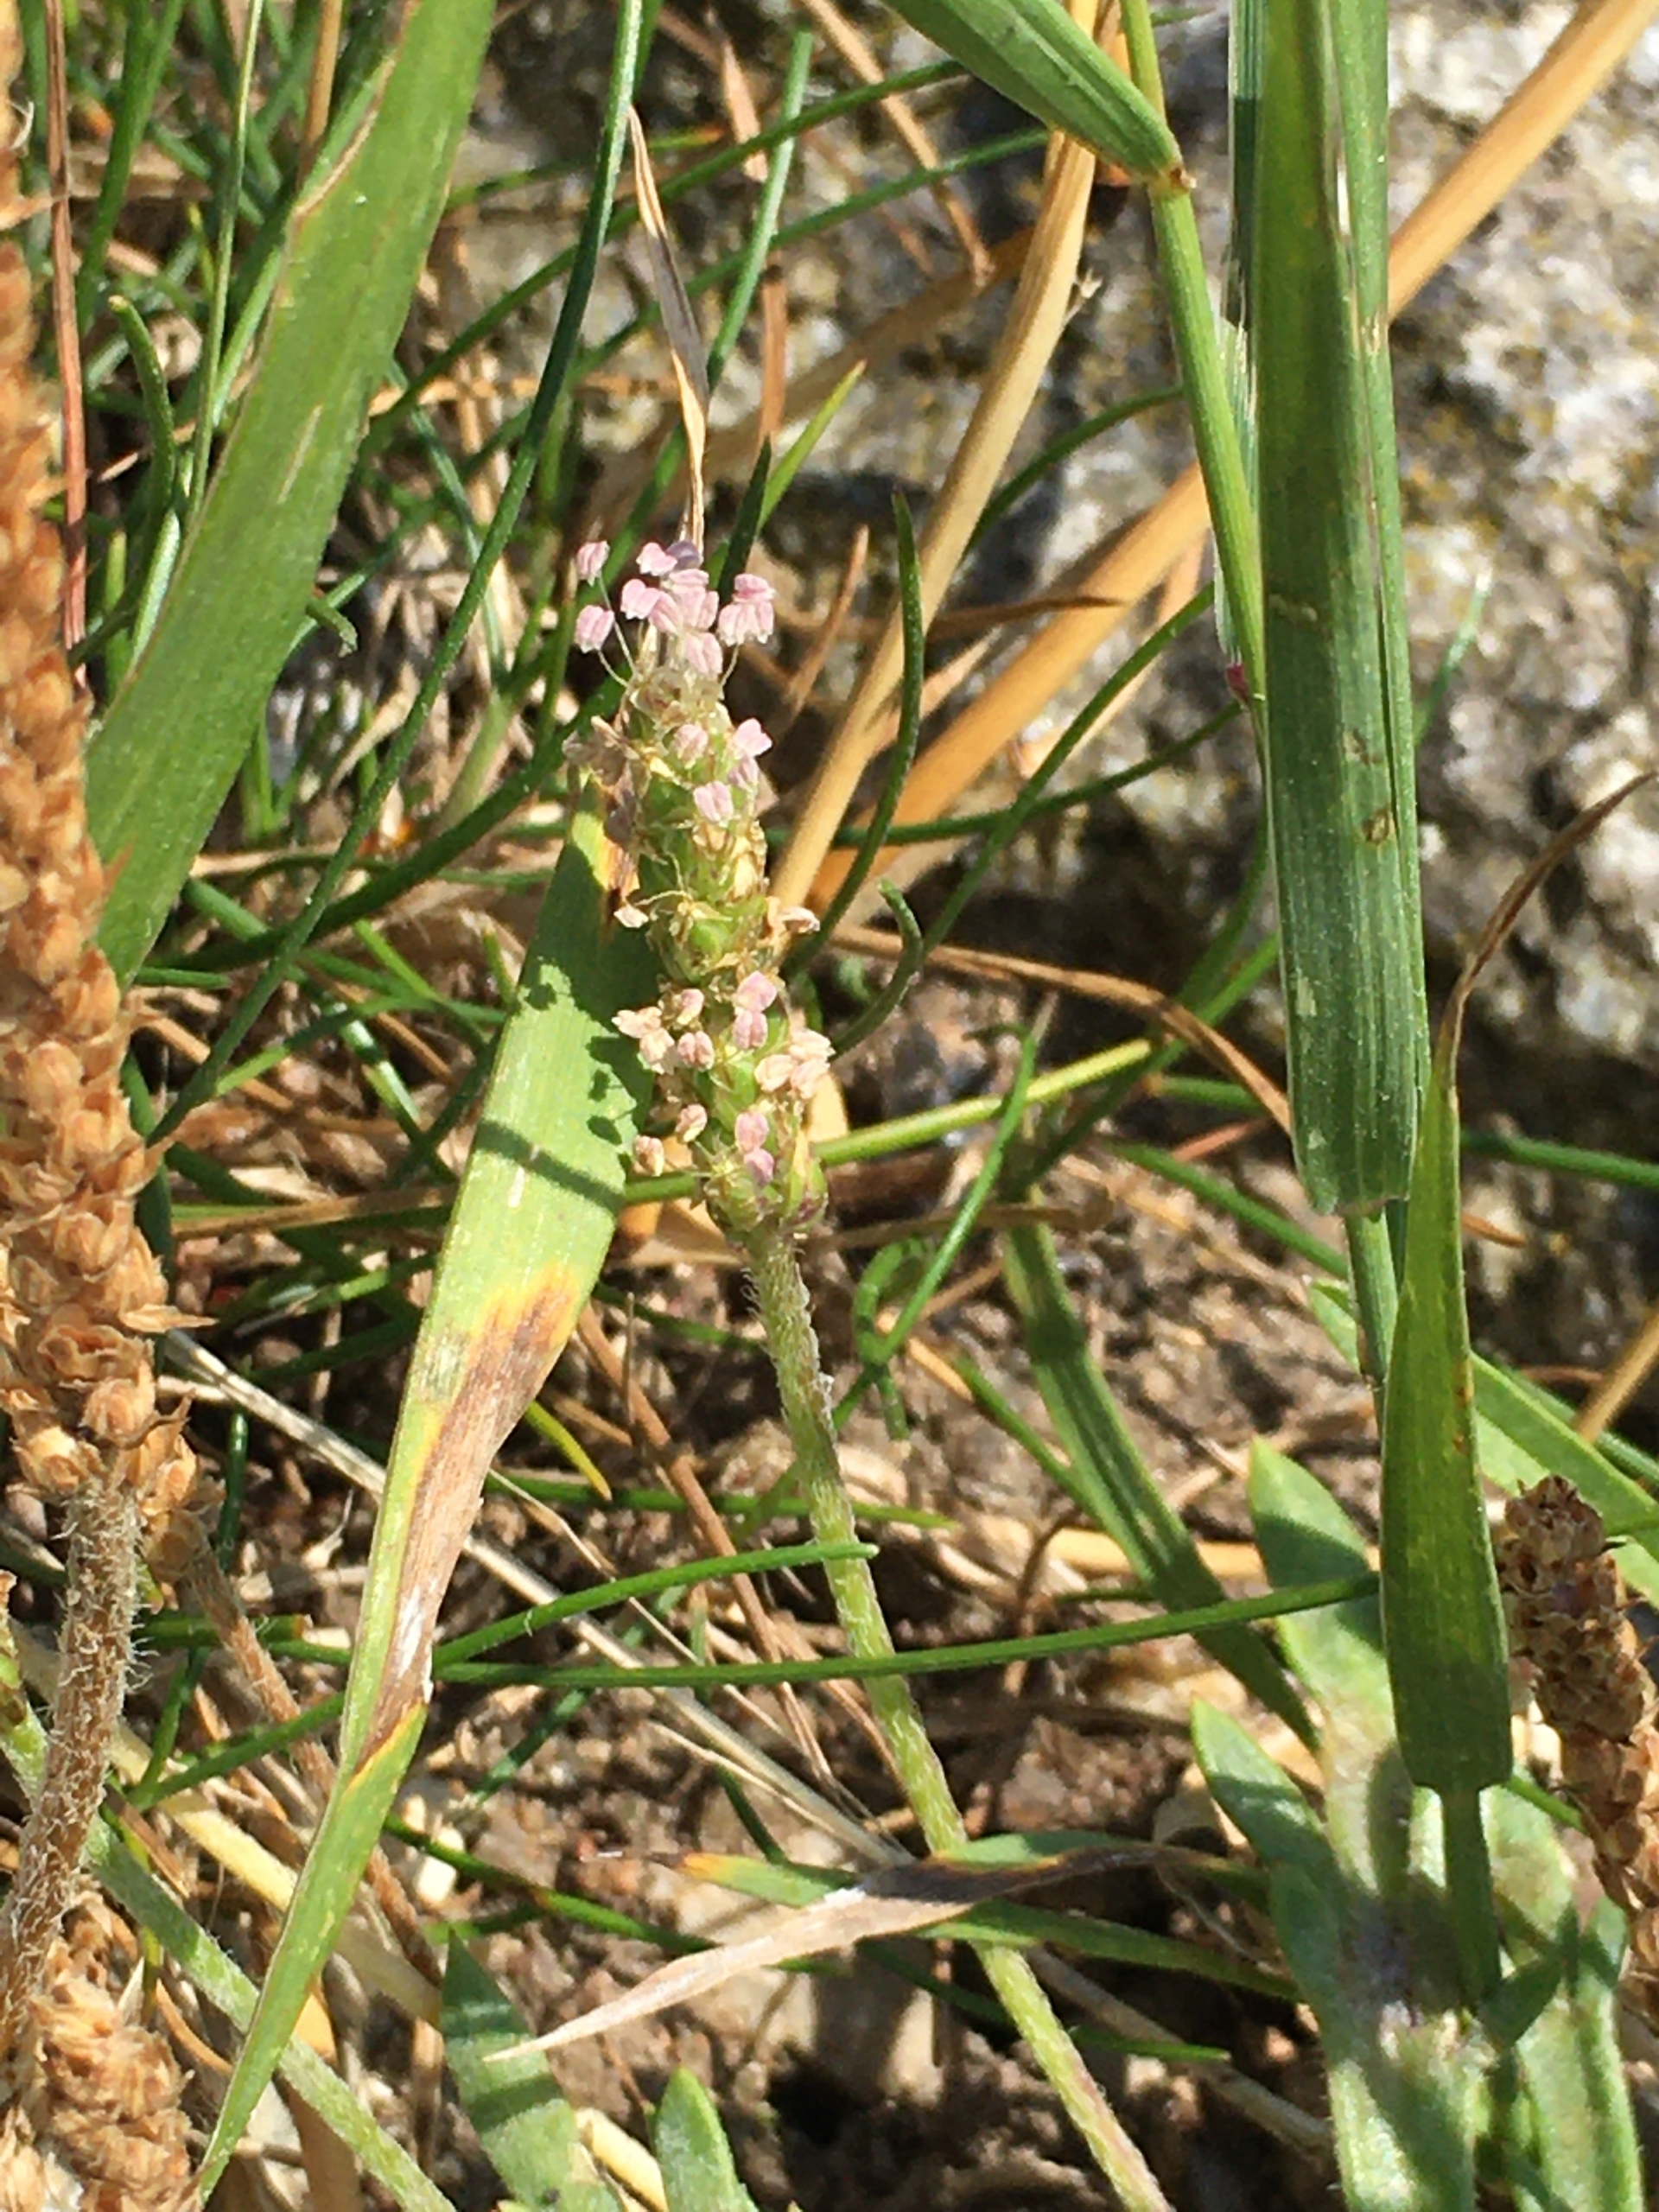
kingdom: Plantae
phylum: Tracheophyta
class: Magnoliopsida
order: Lamiales
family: Plantaginaceae
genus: Plantago
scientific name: Plantago coronopus
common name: Fliget vejbred
